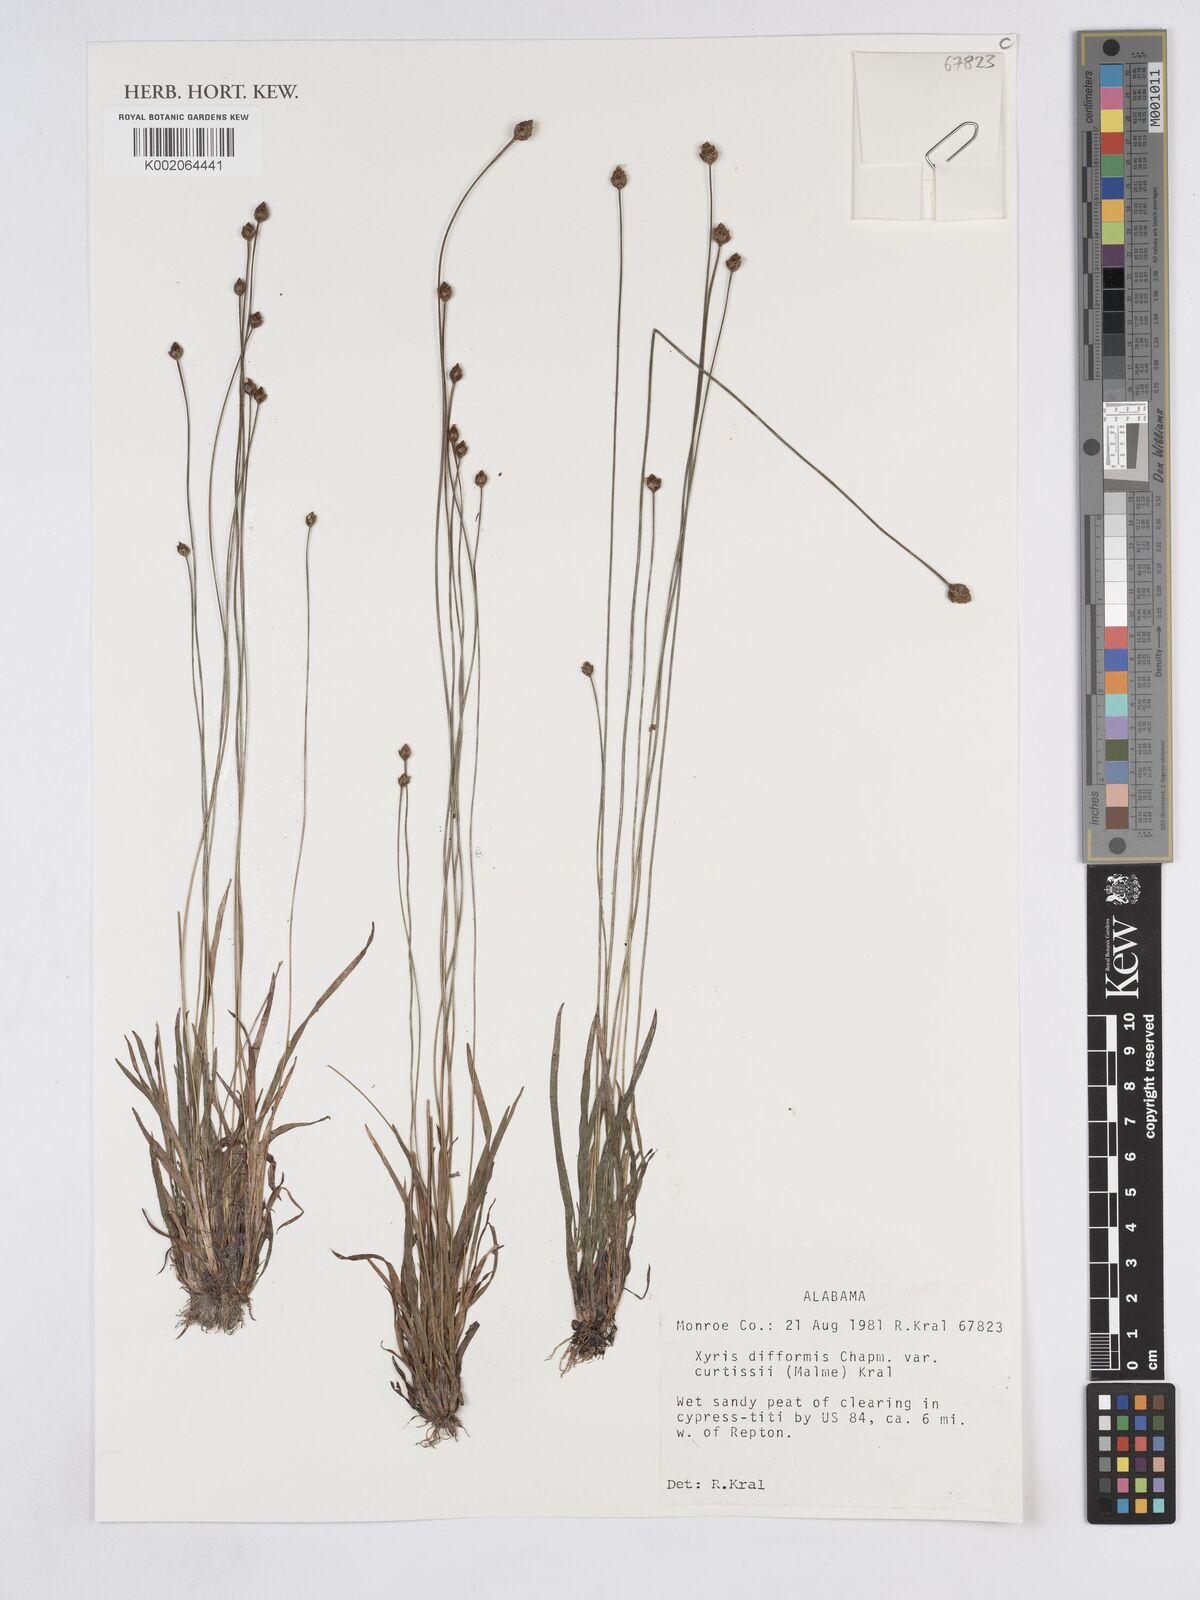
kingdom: Plantae
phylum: Tracheophyta
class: Liliopsida
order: Poales
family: Xyridaceae
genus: Xyris
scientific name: Xyris difformis
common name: Bog yellow-eyed-grass
